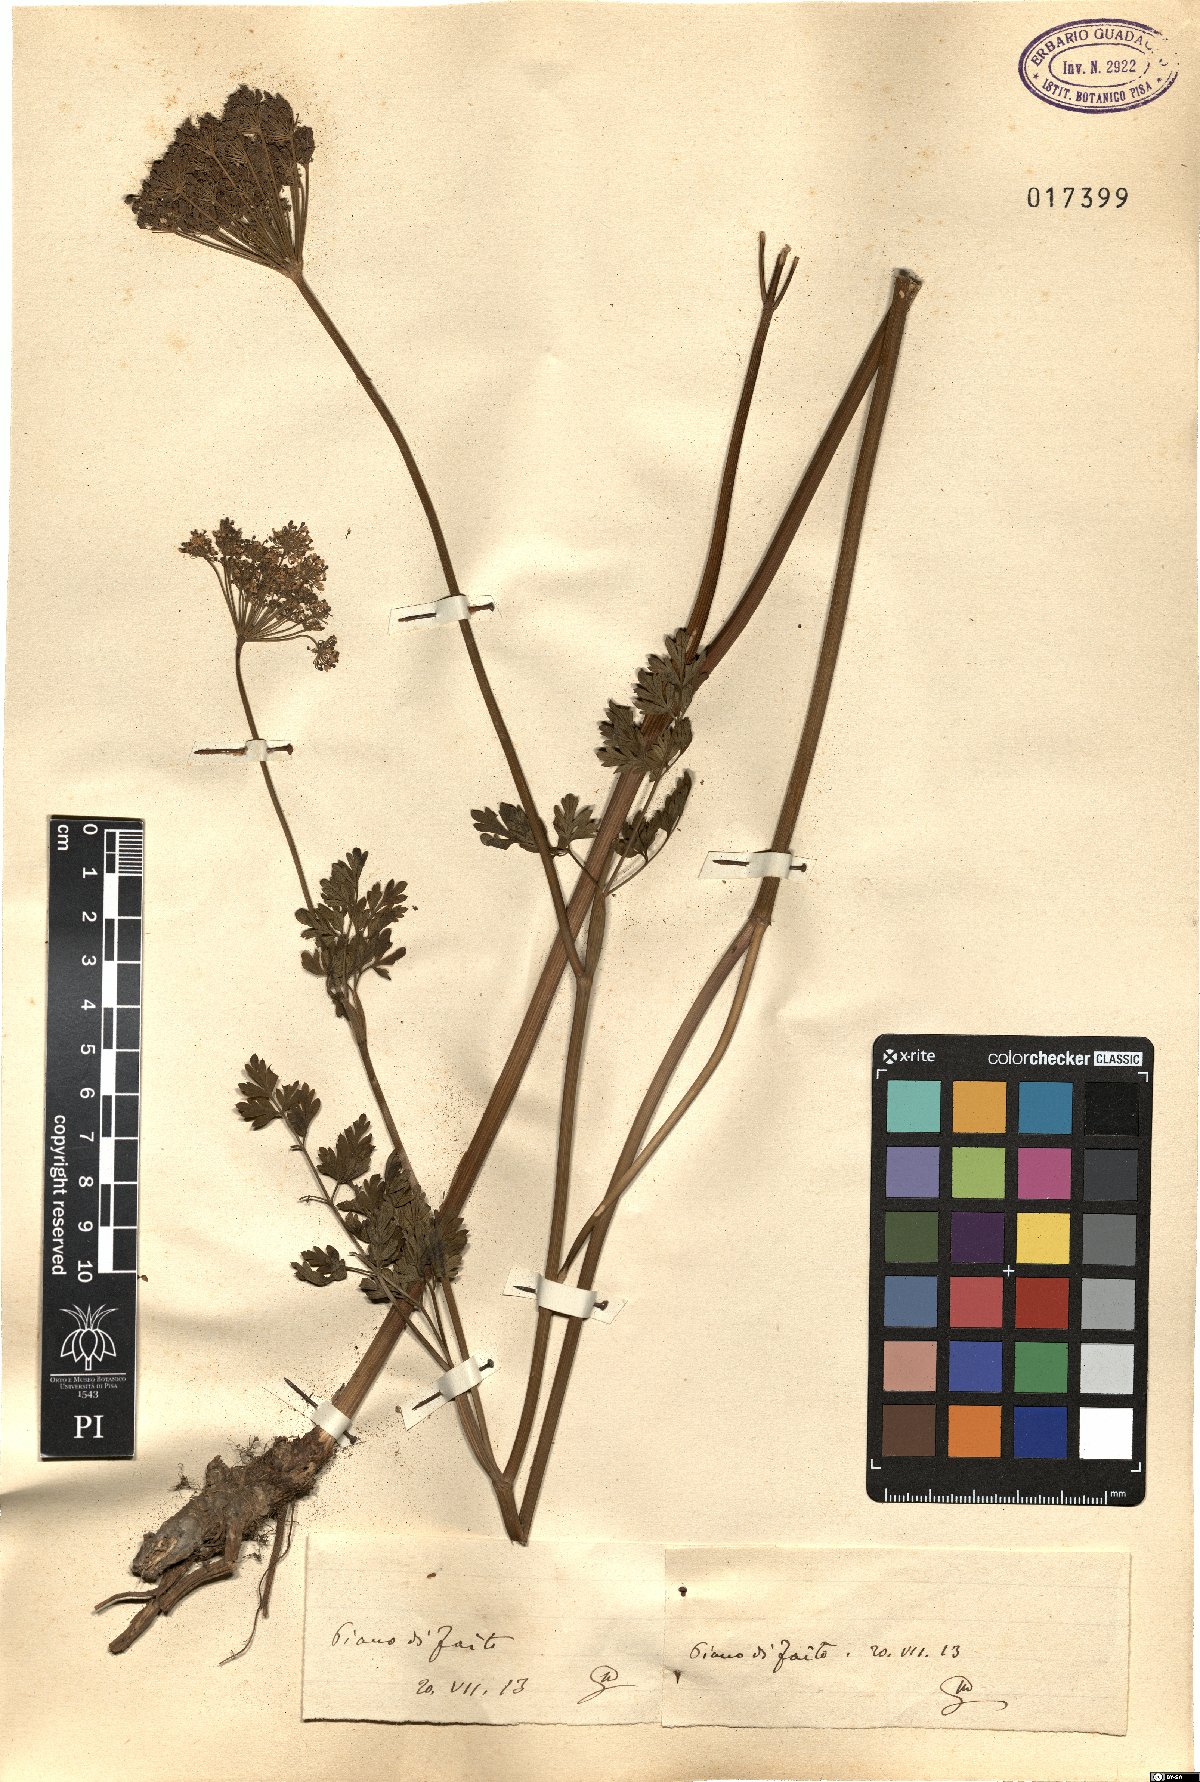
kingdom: Plantae
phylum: Tracheophyta
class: Magnoliopsida
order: Apiales
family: Apiaceae
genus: Selinum
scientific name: Selinum
